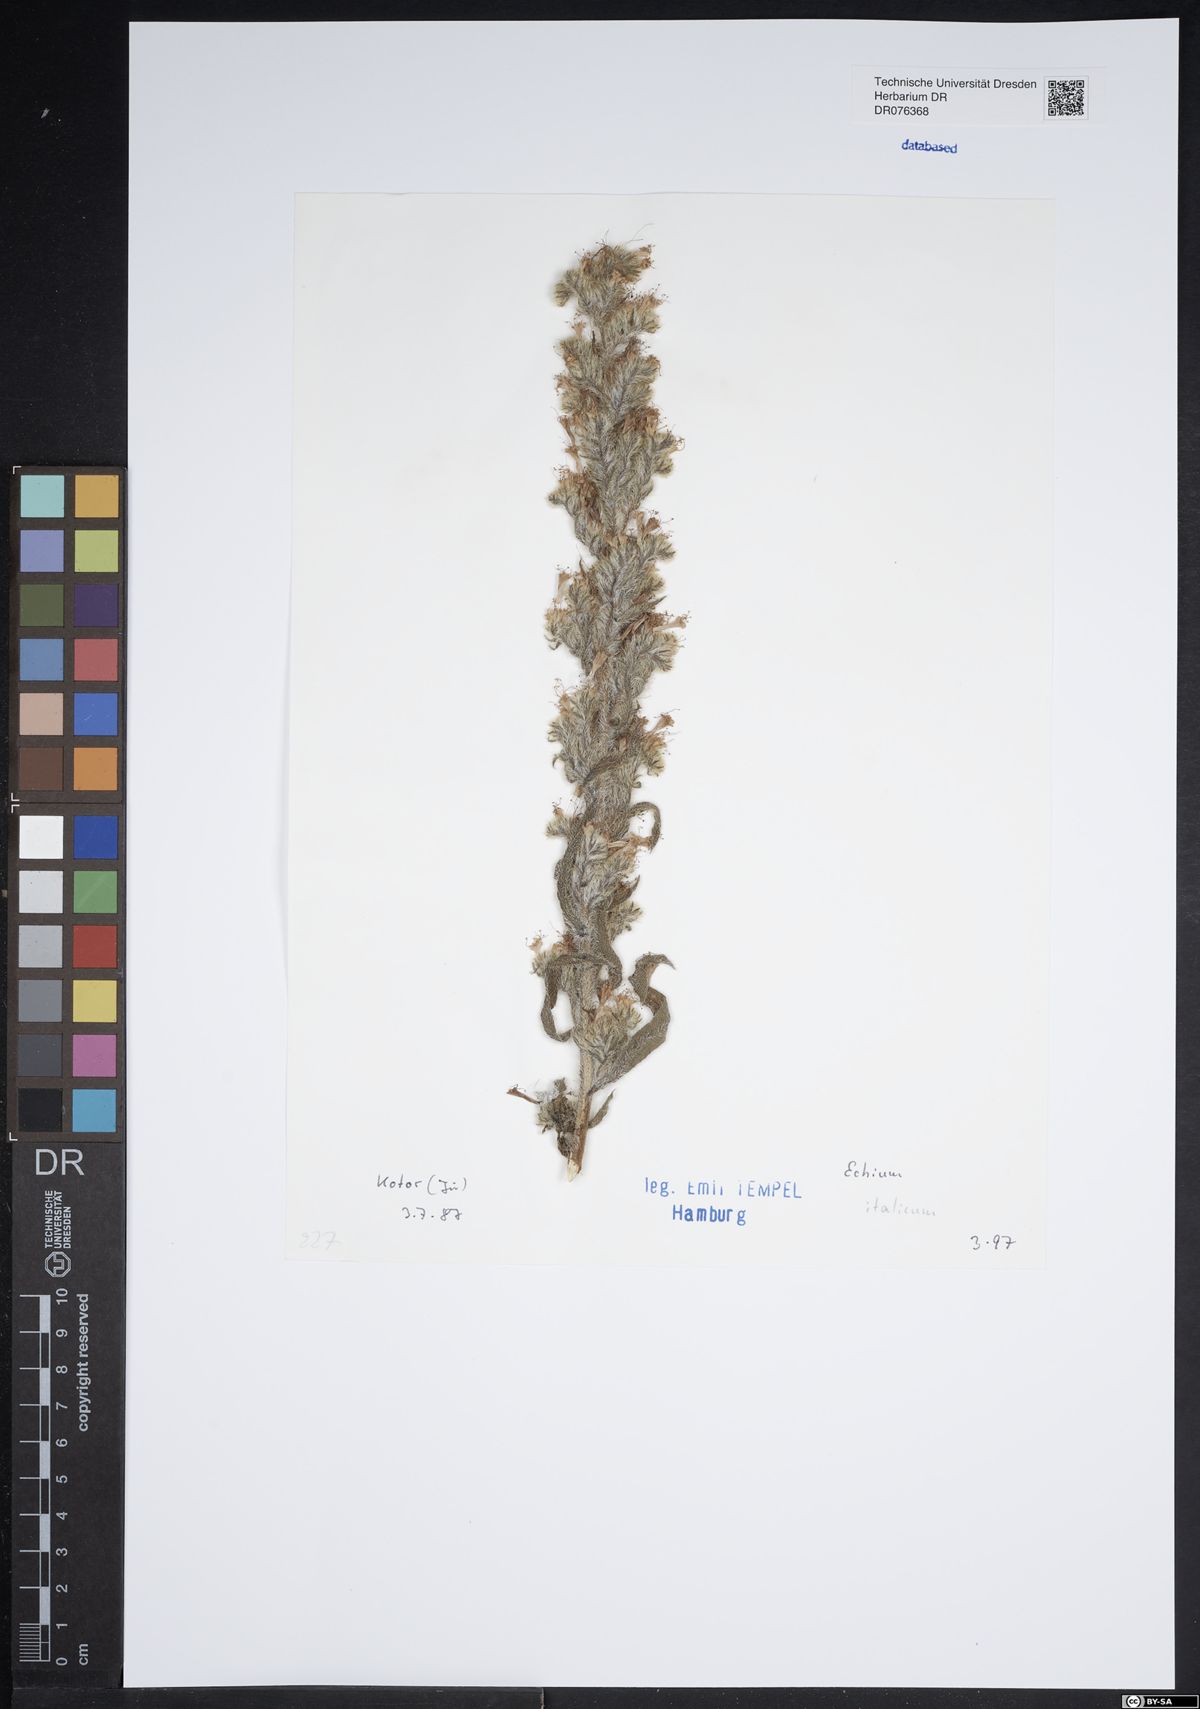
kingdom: Plantae
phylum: Tracheophyta
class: Magnoliopsida
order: Boraginales
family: Boraginaceae
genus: Echium
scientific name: Echium italicum
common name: Italian viper's bugloss
